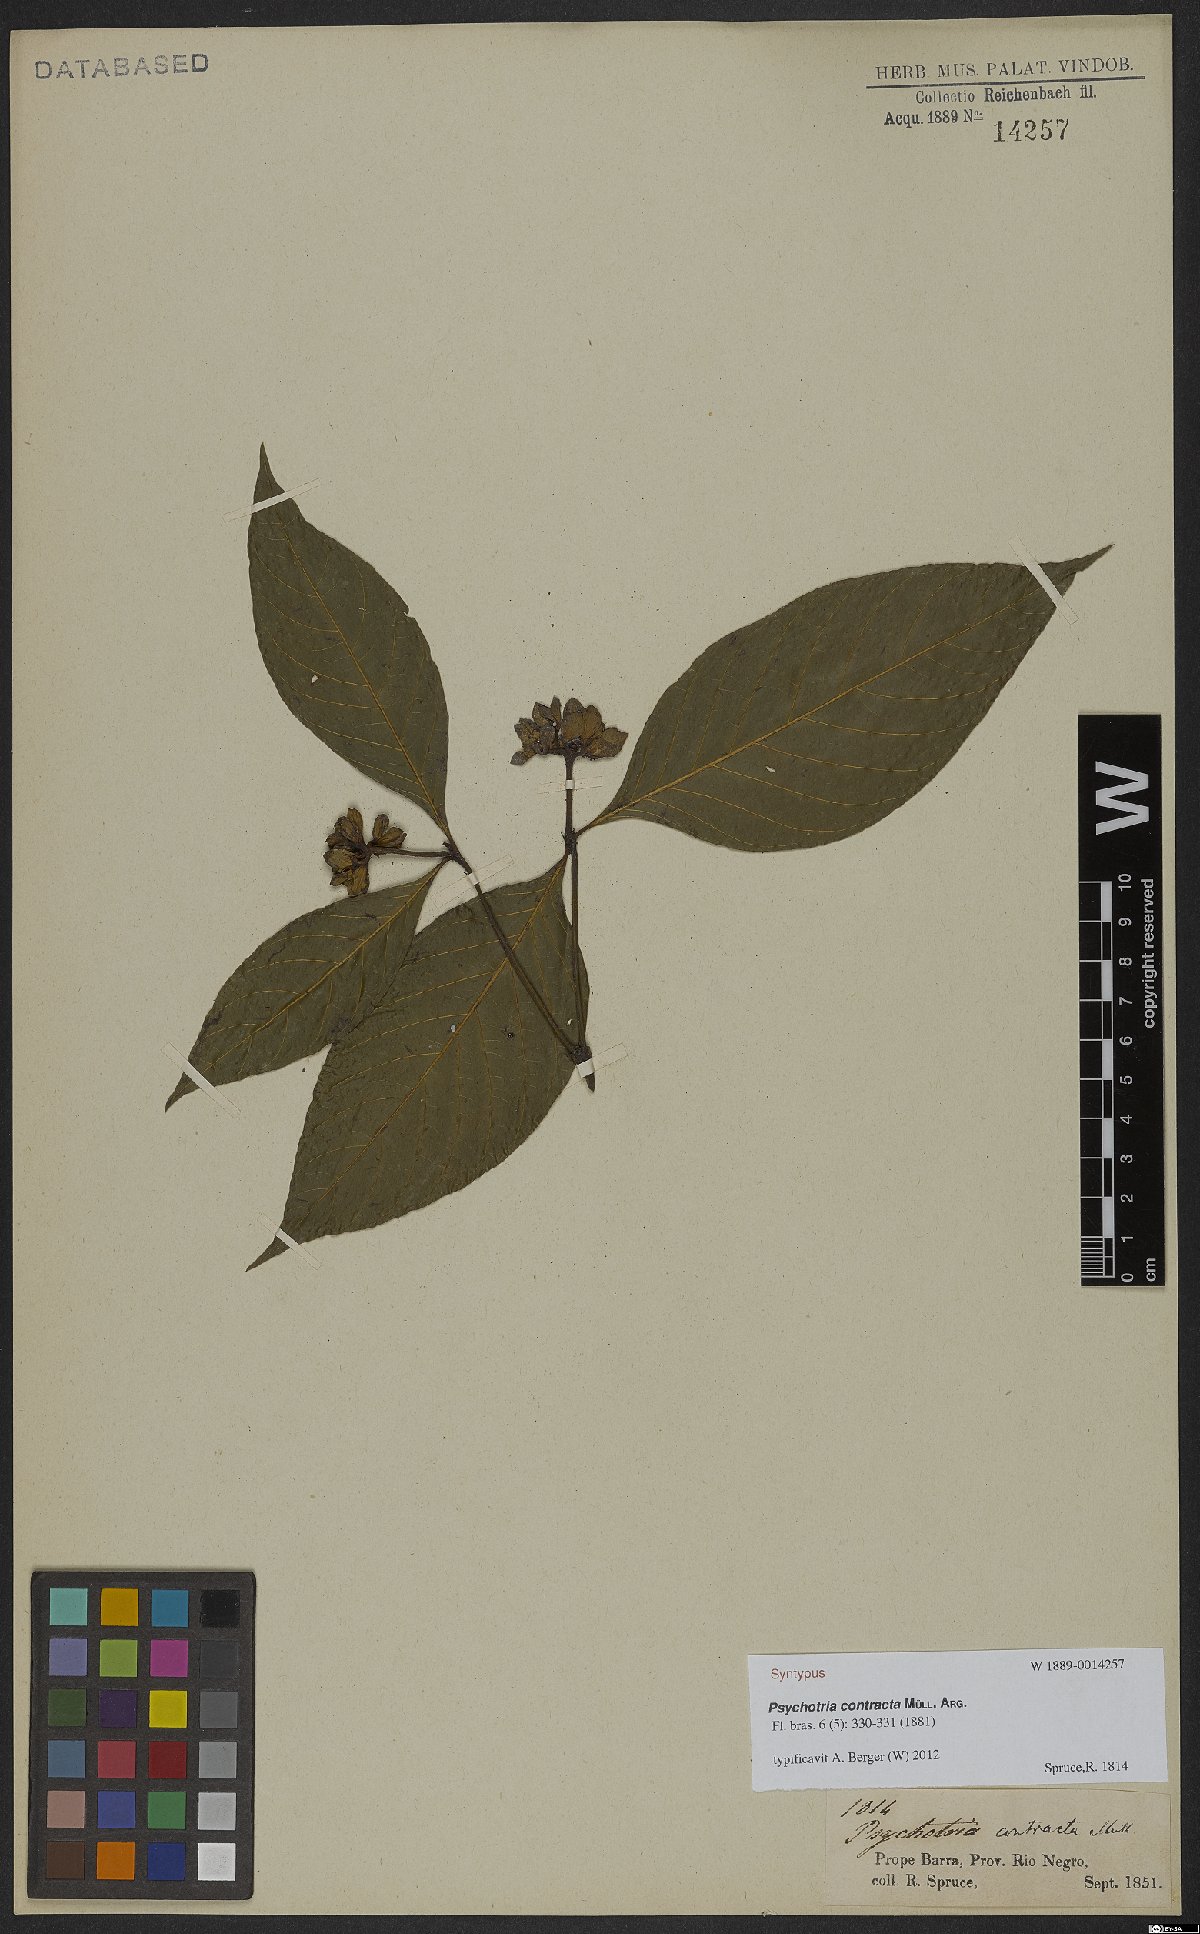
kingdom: Plantae
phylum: Tracheophyta
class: Magnoliopsida
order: Gentianales
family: Rubiaceae
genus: Palicourea
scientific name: Palicourea justiciifolia
